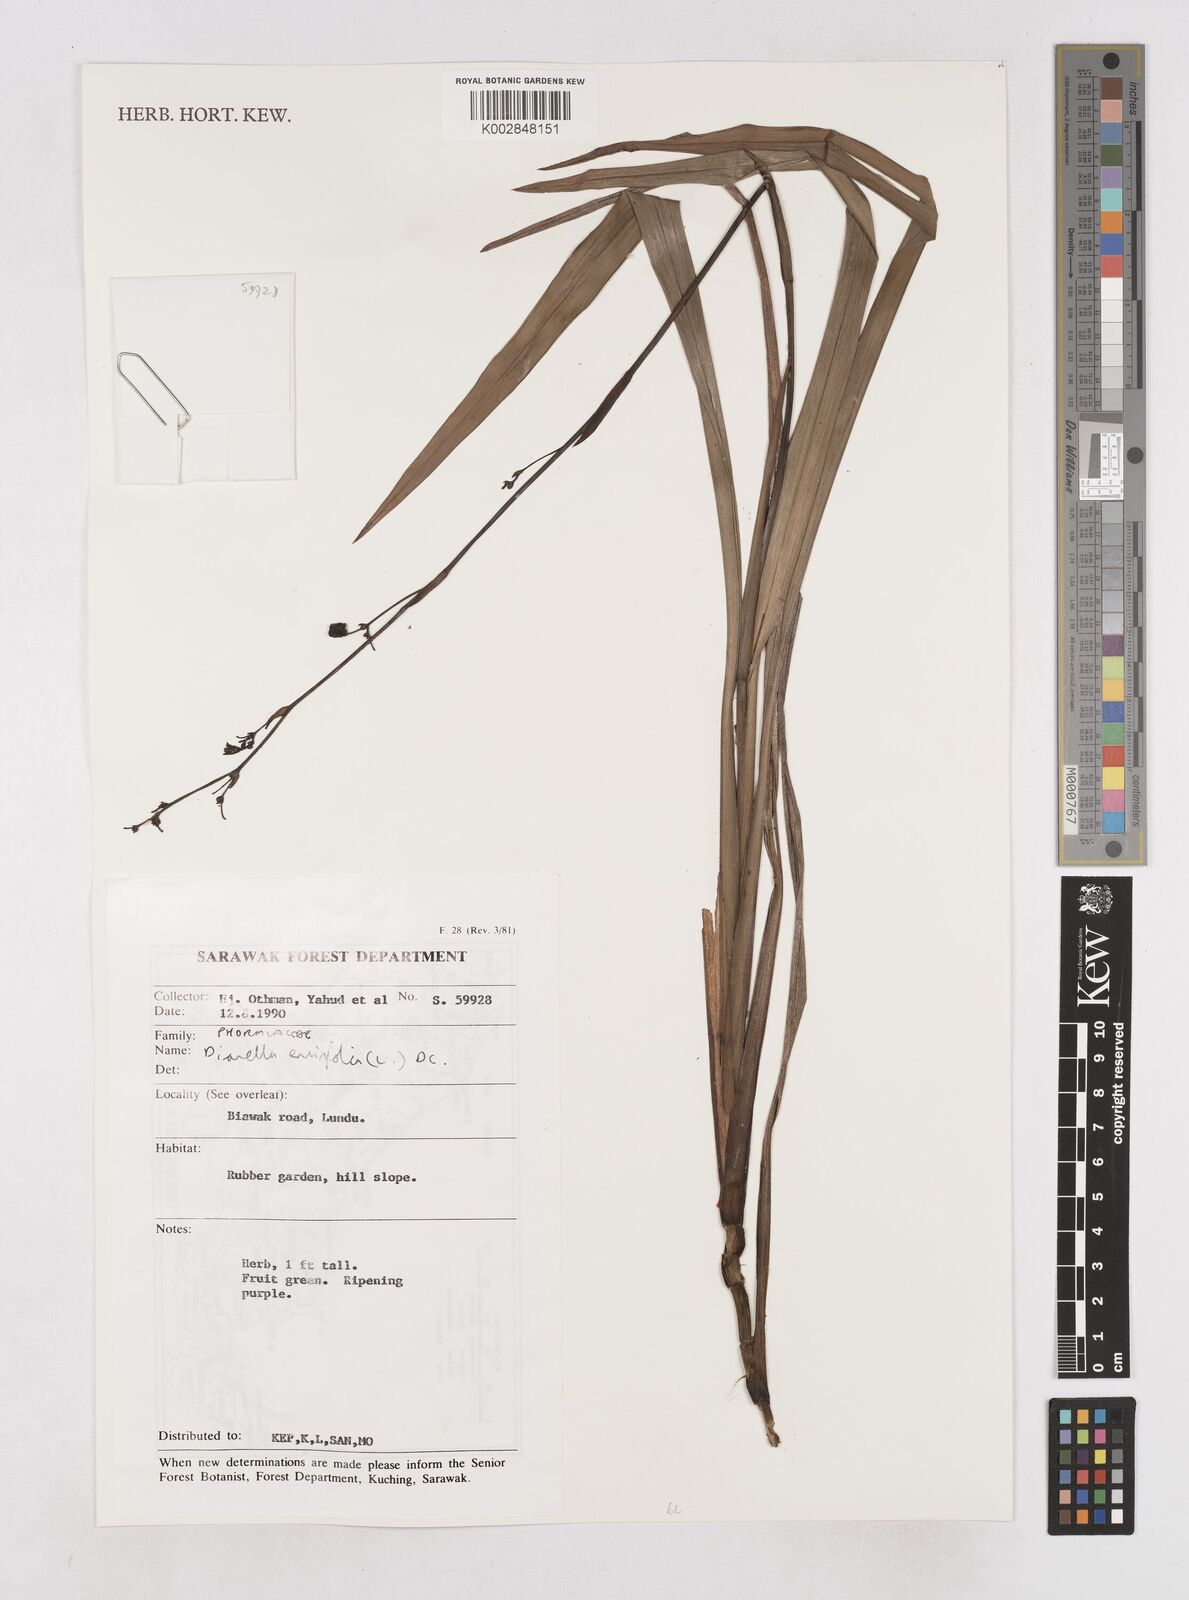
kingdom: Plantae
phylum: Tracheophyta
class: Liliopsida
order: Asparagales
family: Asphodelaceae
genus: Dianella
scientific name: Dianella ensifolia
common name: New zealand lilyplant
